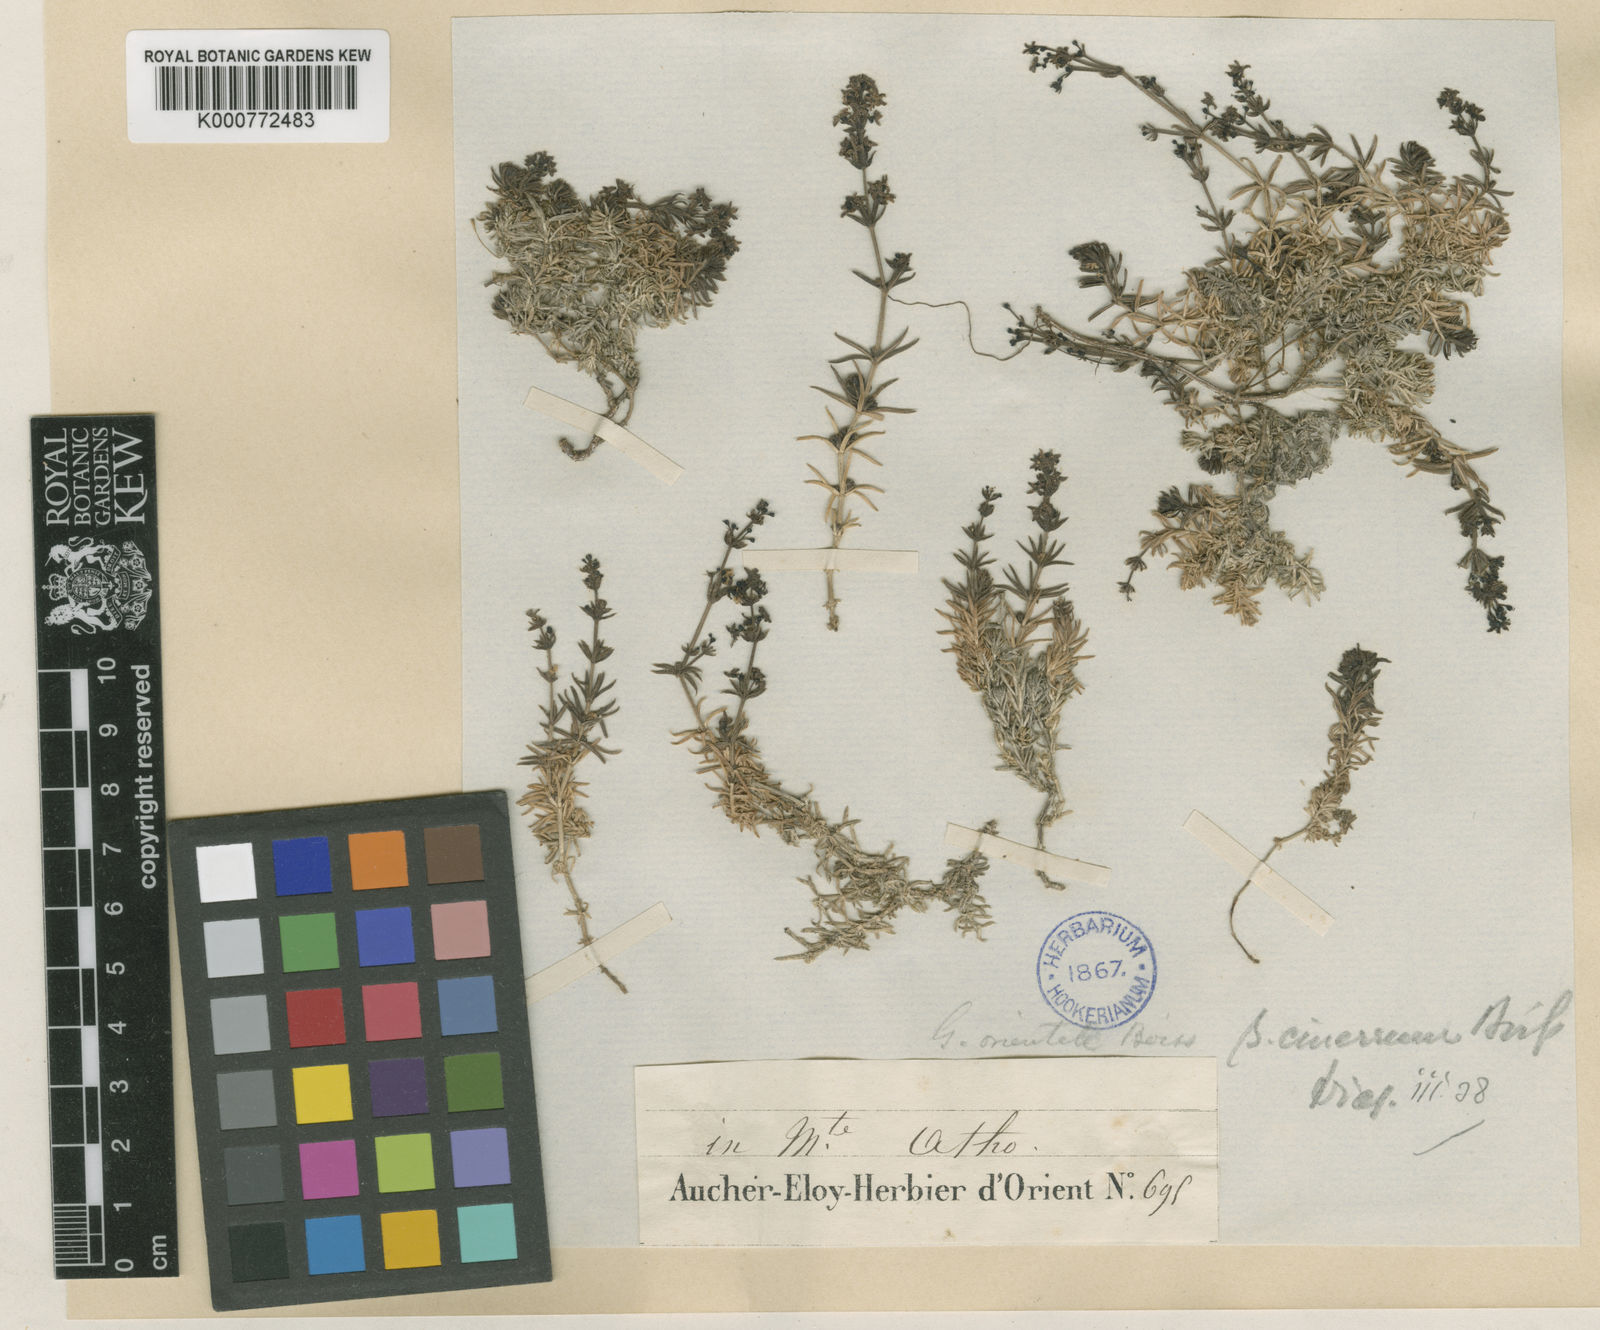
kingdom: Plantae
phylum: Tracheophyta
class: Magnoliopsida
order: Gentianales
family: Rubiaceae
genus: Galium
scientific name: Galium incanum
